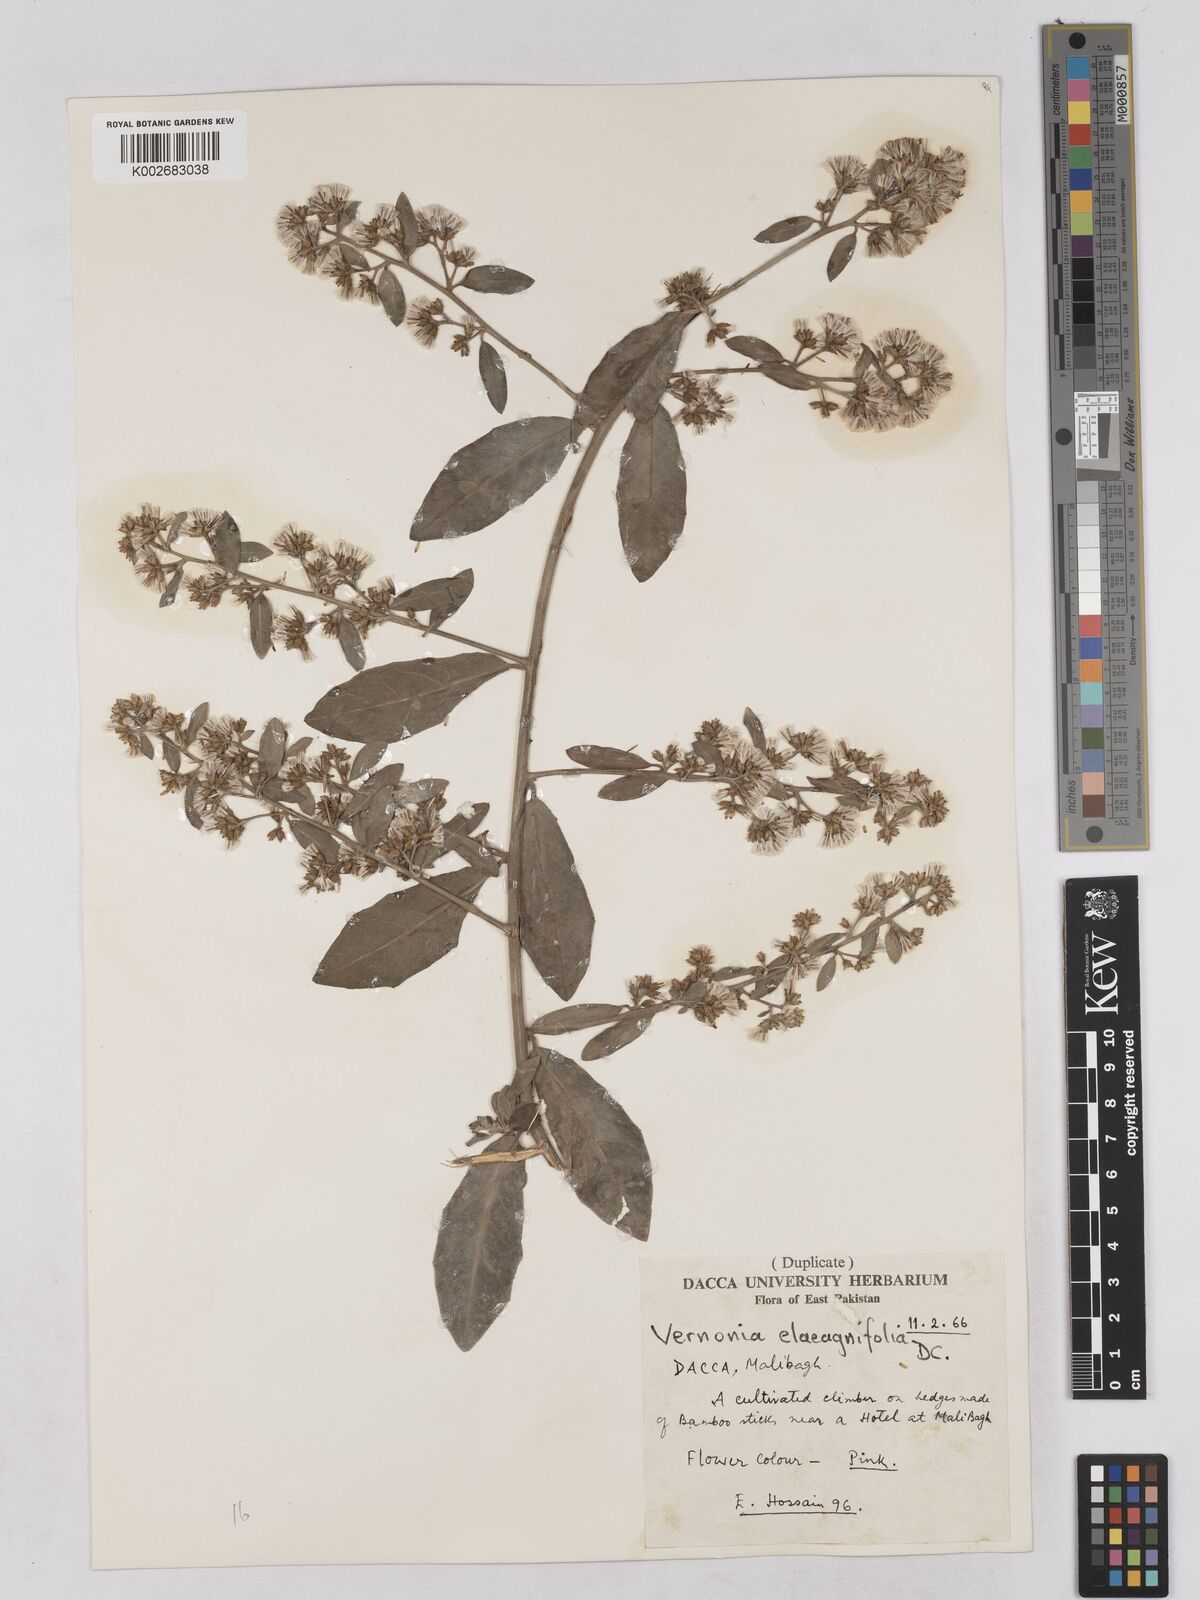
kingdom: Plantae
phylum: Tracheophyta
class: Magnoliopsida
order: Asterales
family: Asteraceae
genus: Tarlmounia
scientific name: Tarlmounia elliptica
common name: Kheua sa lot
